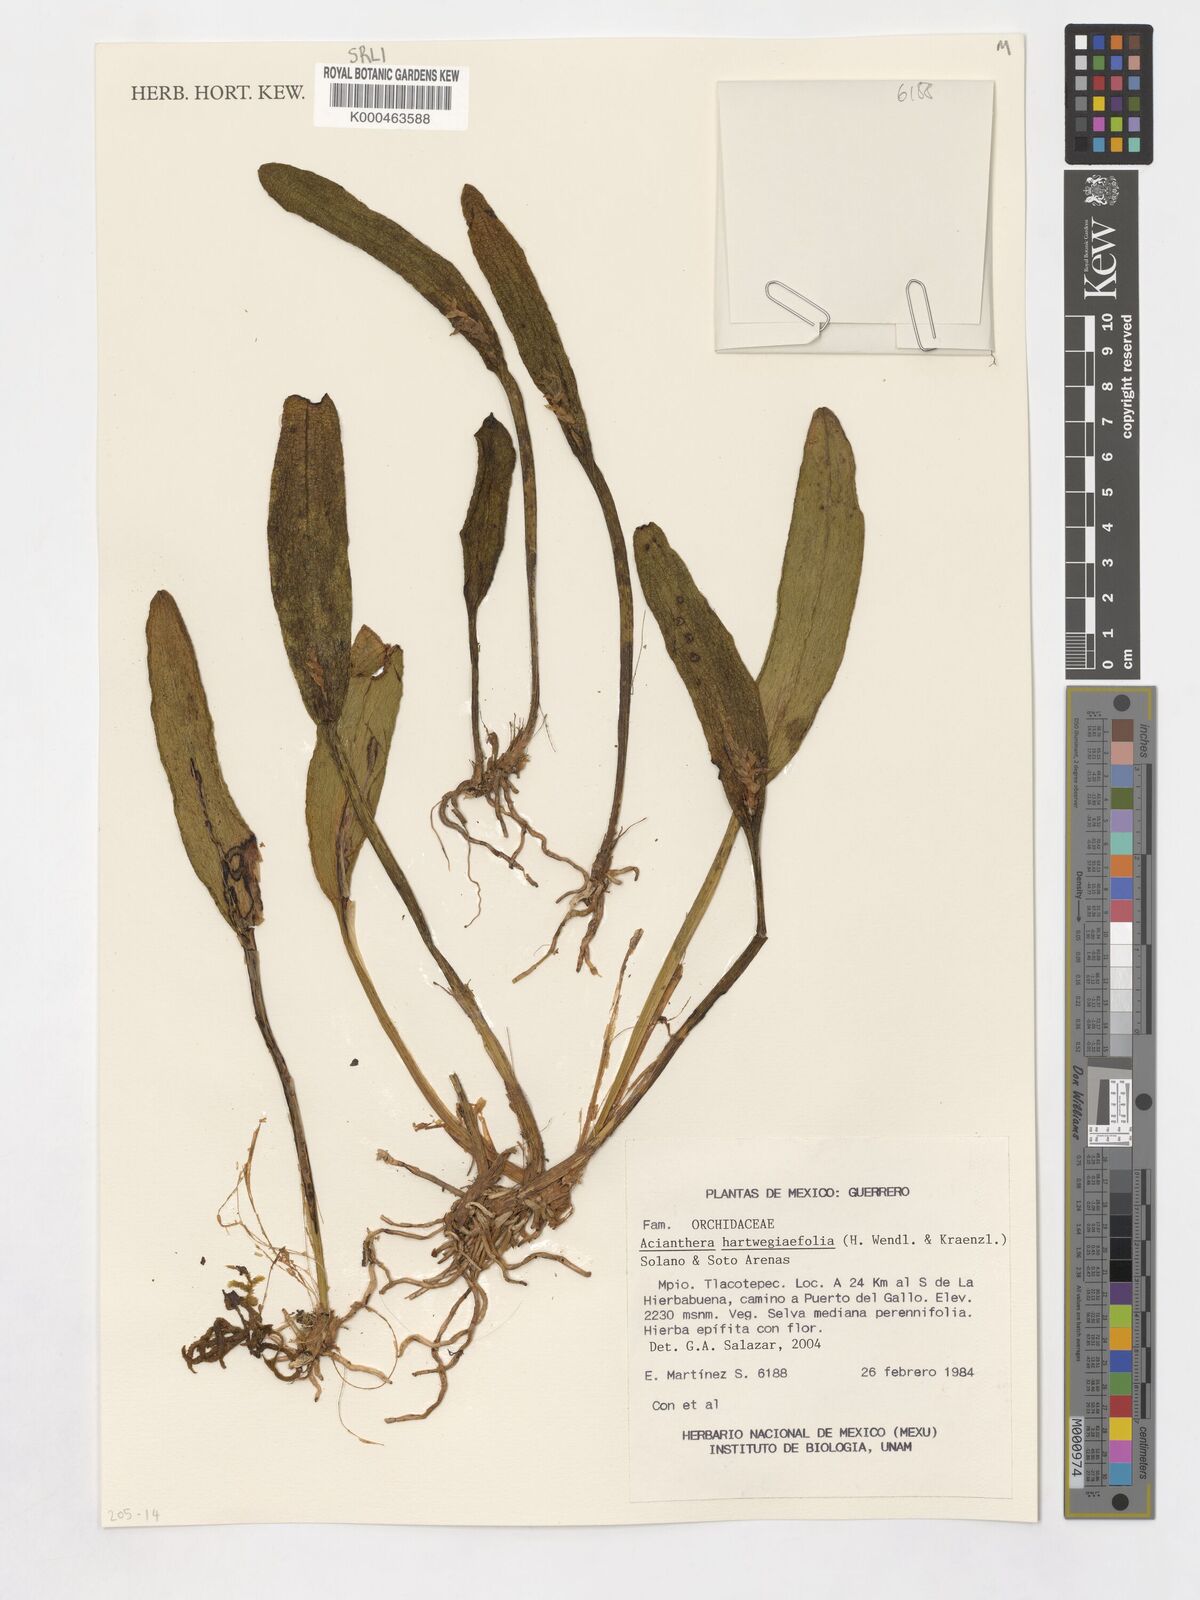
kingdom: Plantae
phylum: Tracheophyta
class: Liliopsida
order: Asparagales
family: Orchidaceae
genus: Acianthera
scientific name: Acianthera chrysantha
